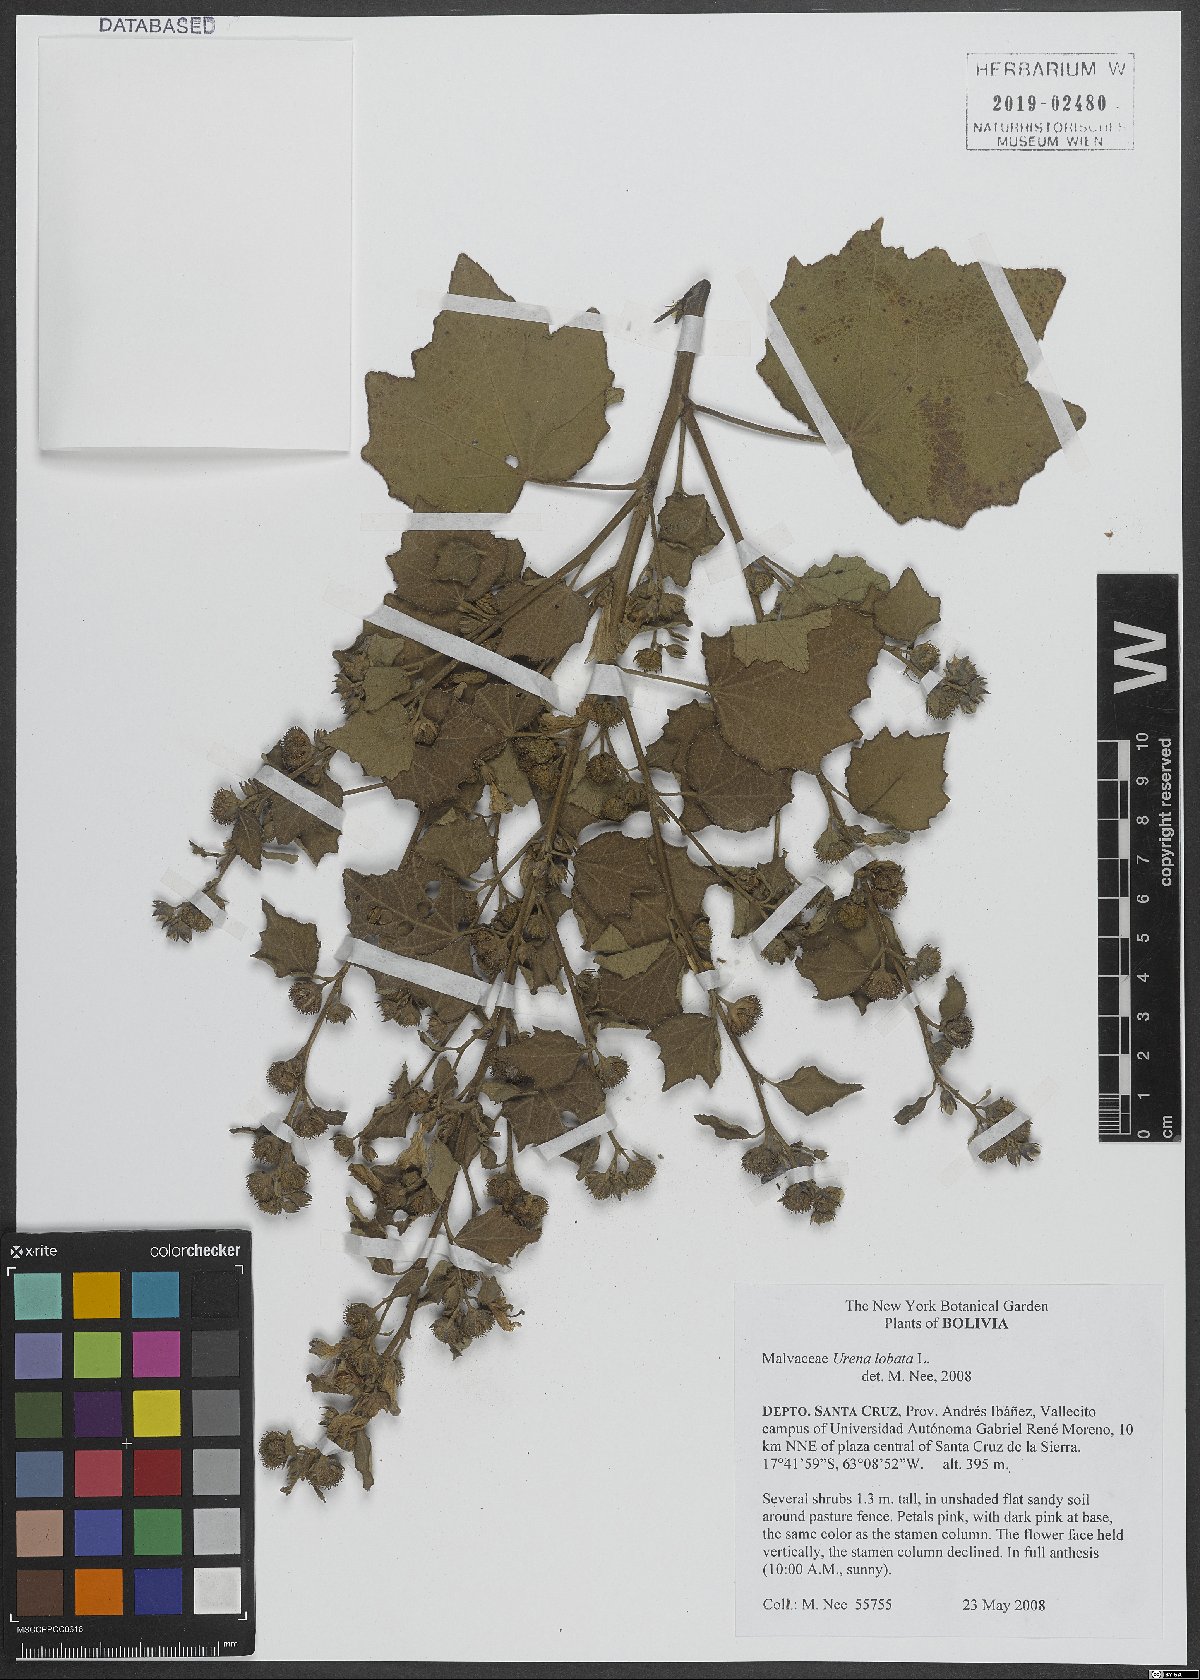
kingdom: Plantae
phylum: Tracheophyta
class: Magnoliopsida
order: Malvales
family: Malvaceae
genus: Urena
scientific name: Urena lobata
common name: Caesarweed
